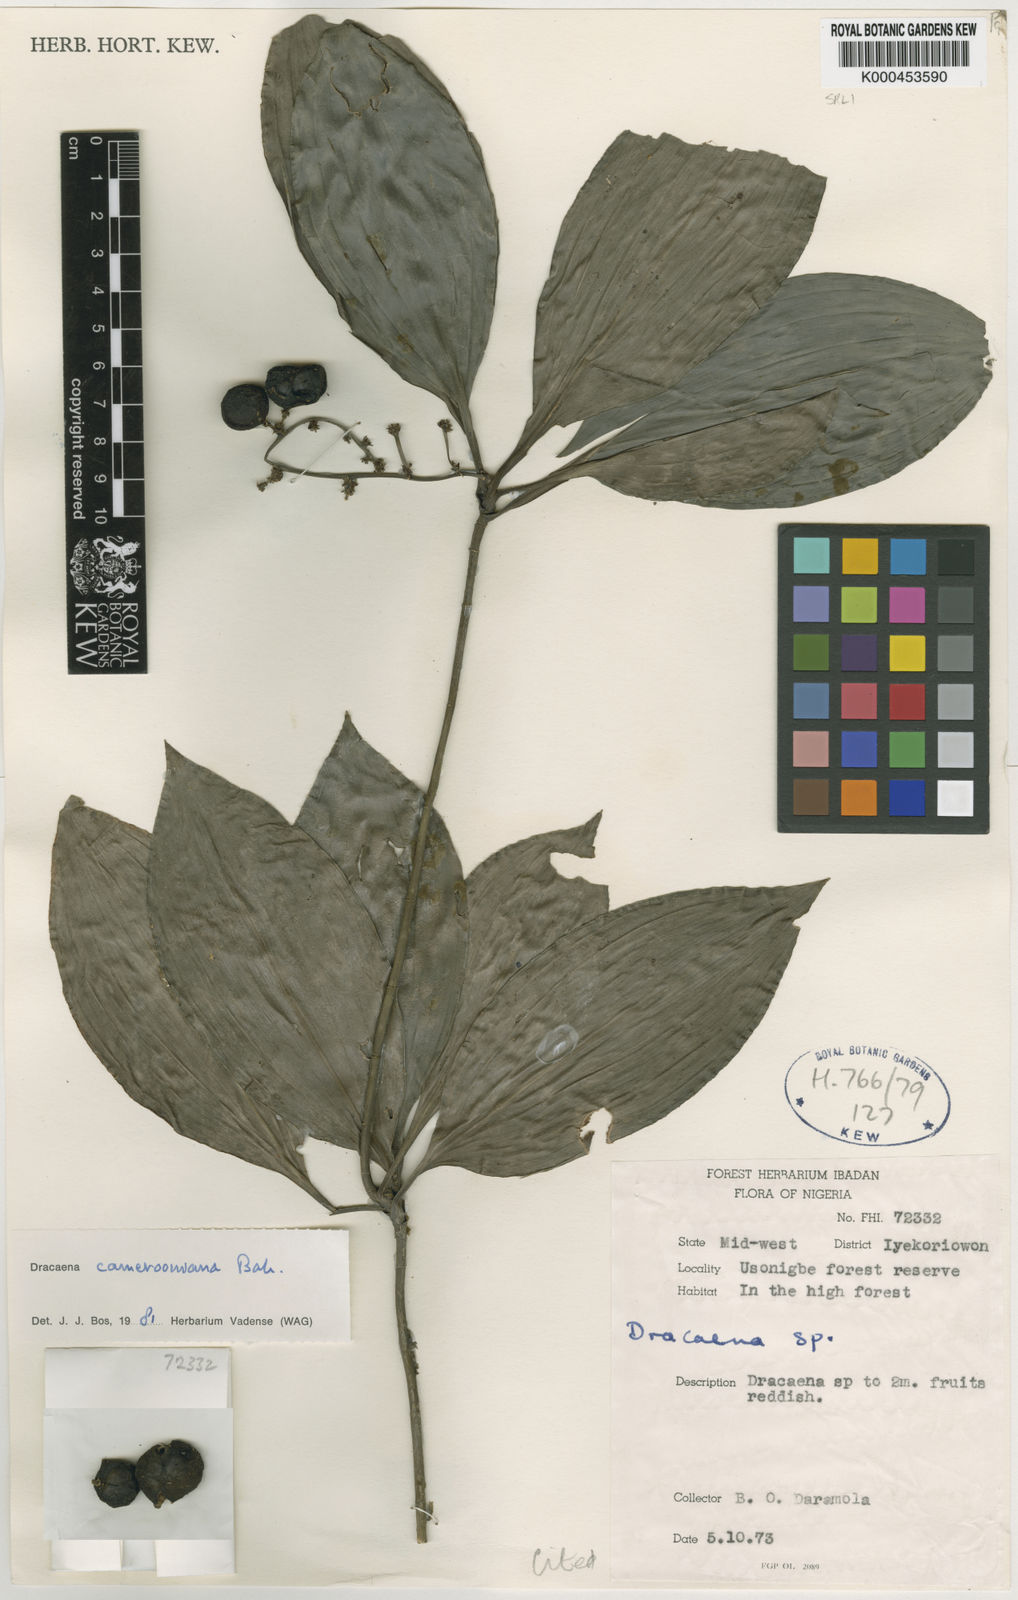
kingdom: Plantae
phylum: Tracheophyta
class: Liliopsida
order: Asparagales
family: Asparagaceae
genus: Dracaena
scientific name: Dracaena camerooniana
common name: Dragon tree
